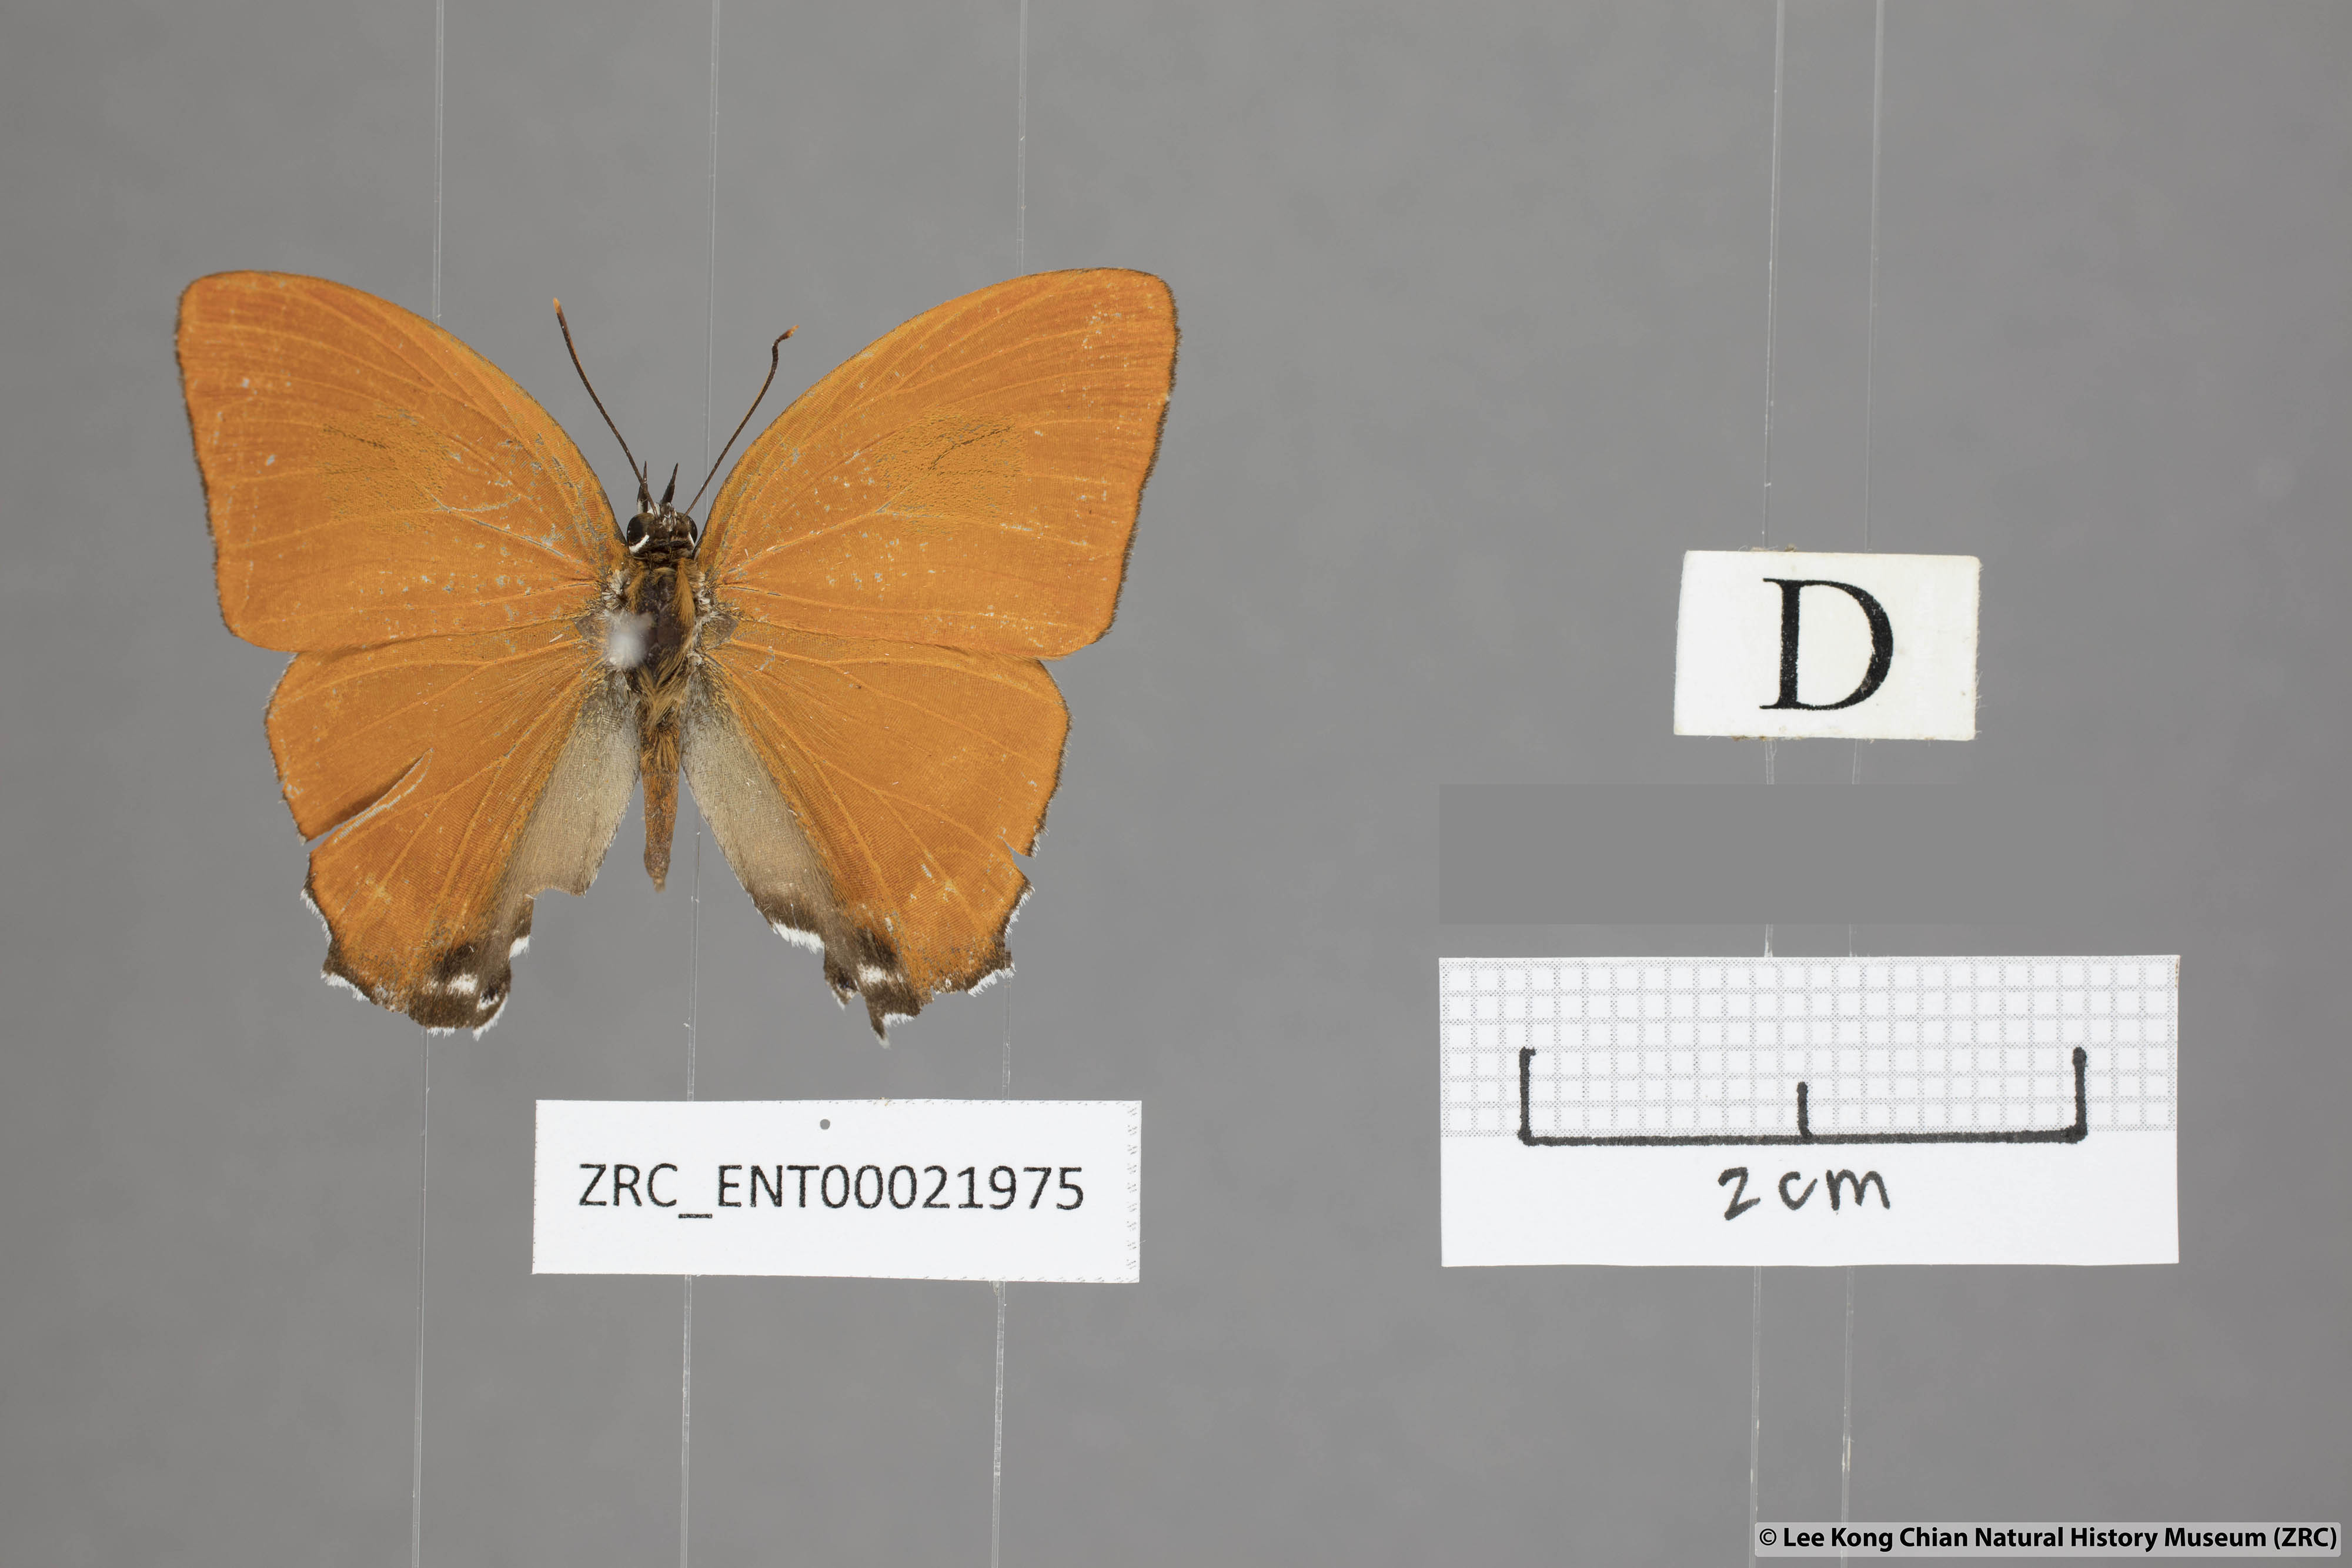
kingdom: Animalia
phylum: Arthropoda
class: Insecta
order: Lepidoptera
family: Lycaenidae
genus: Ritra
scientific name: Ritra aurea
